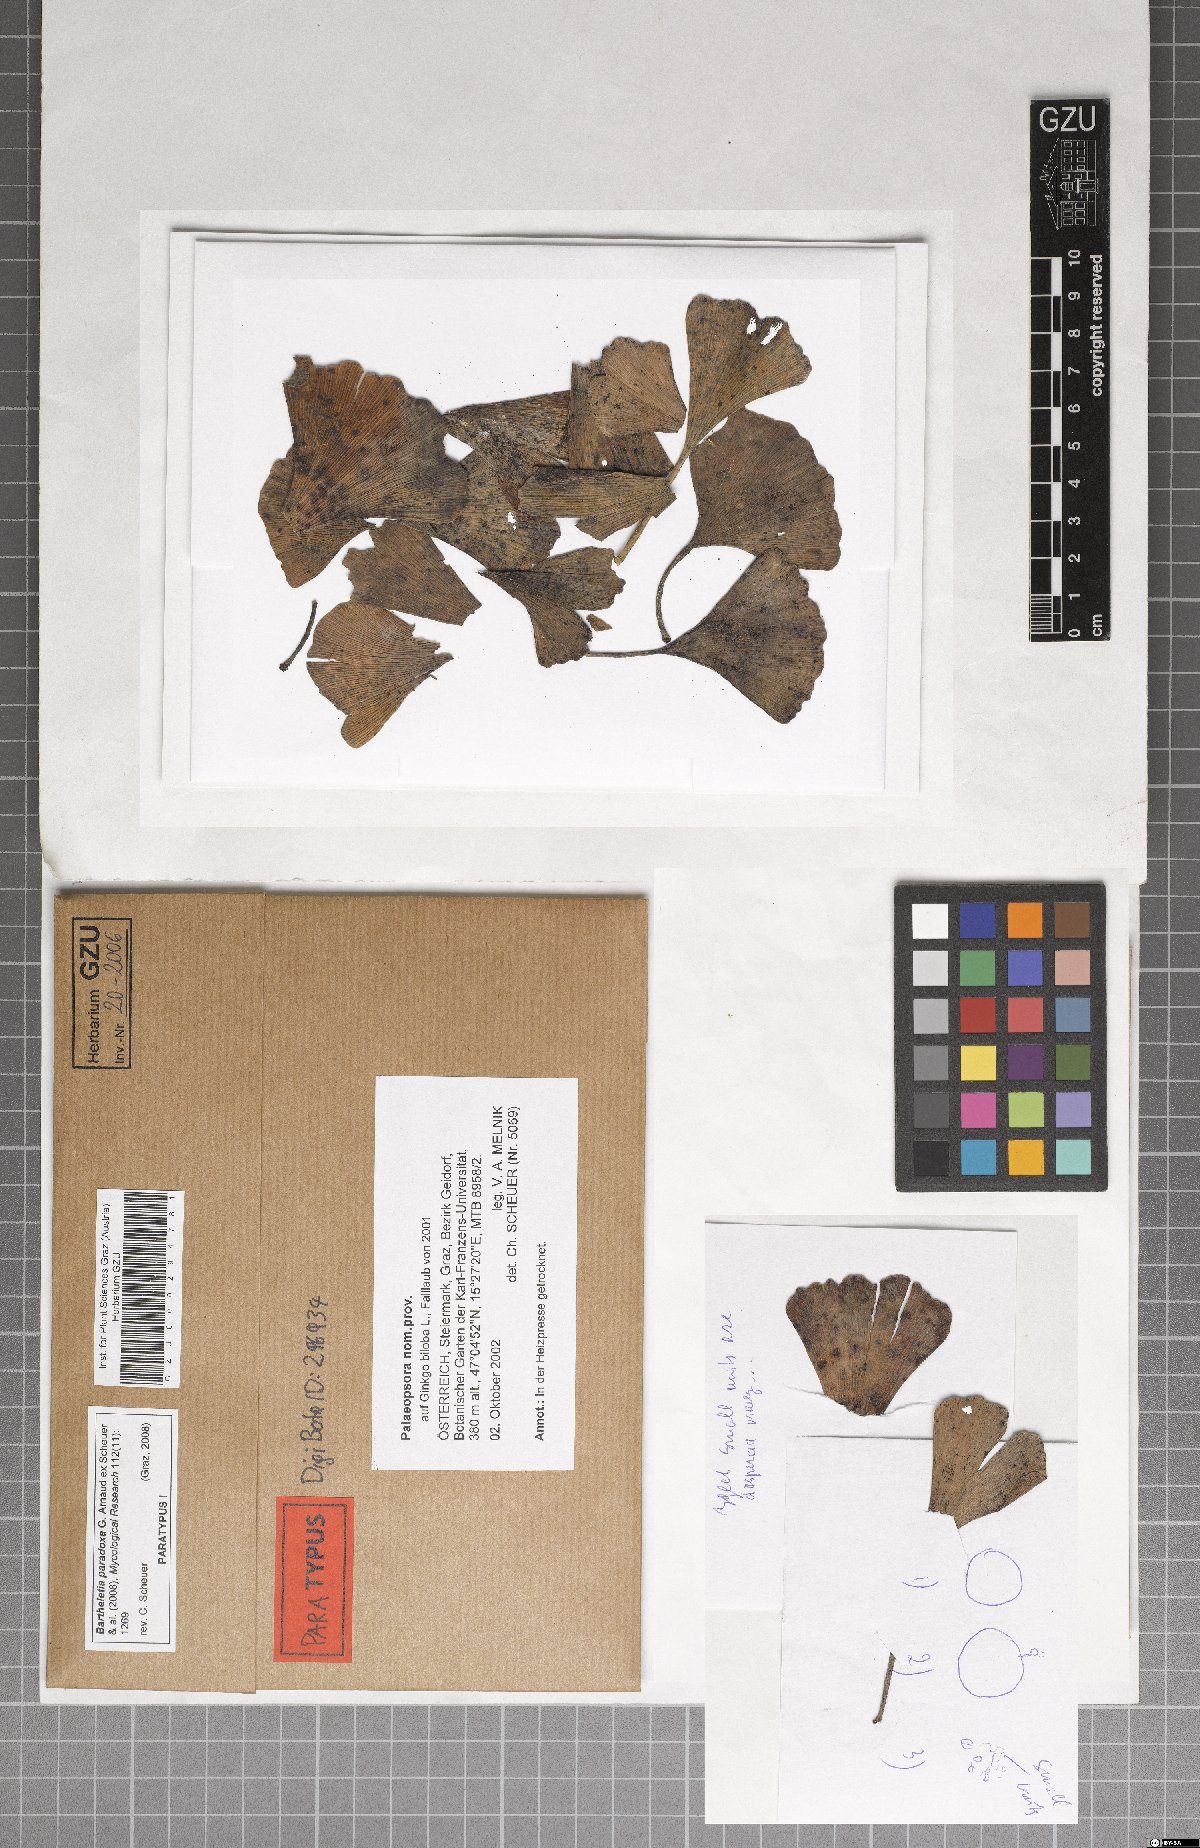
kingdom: Fungi
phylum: Basidiomycota
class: Wallemiomycetes
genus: Bartheletia
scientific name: Bartheletia paradoxa
